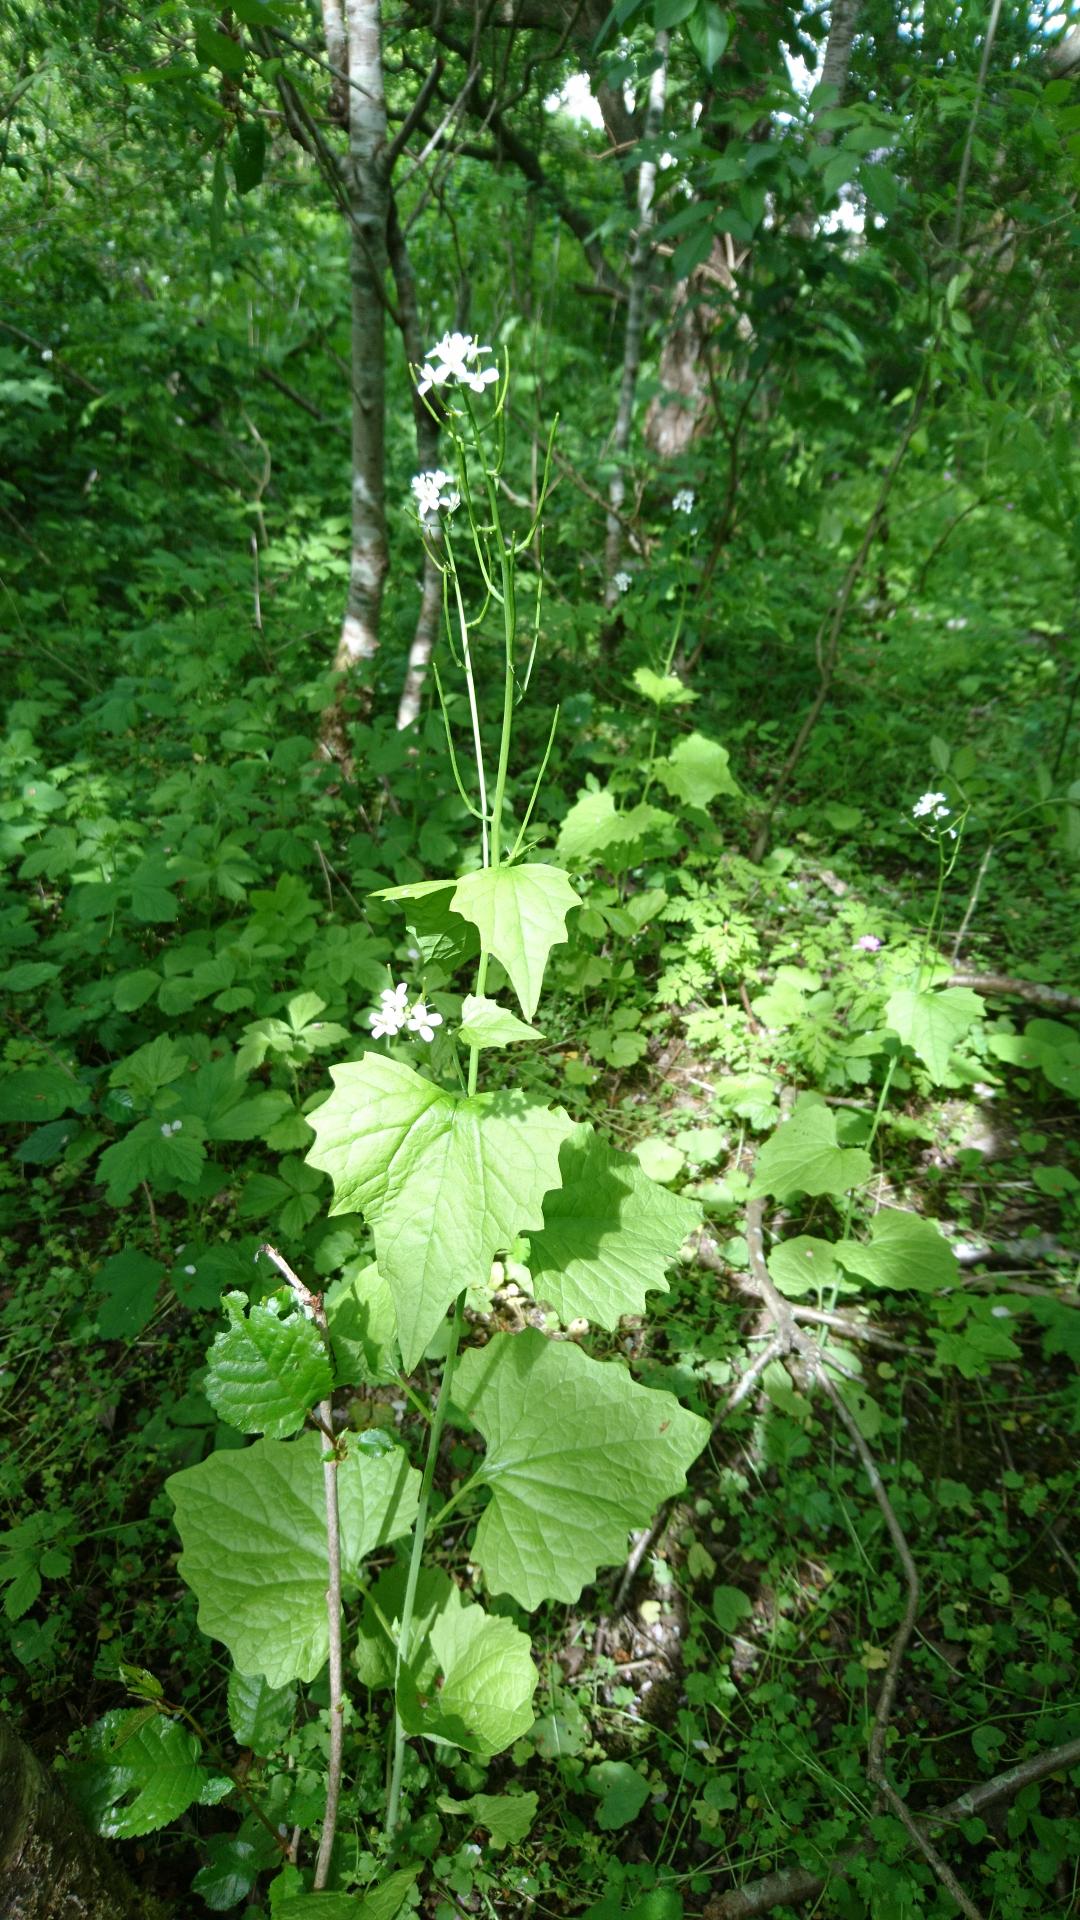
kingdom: Plantae
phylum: Tracheophyta
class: Magnoliopsida
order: Brassicales
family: Brassicaceae
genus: Alliaria
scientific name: Alliaria petiolata
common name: Løgkarse
